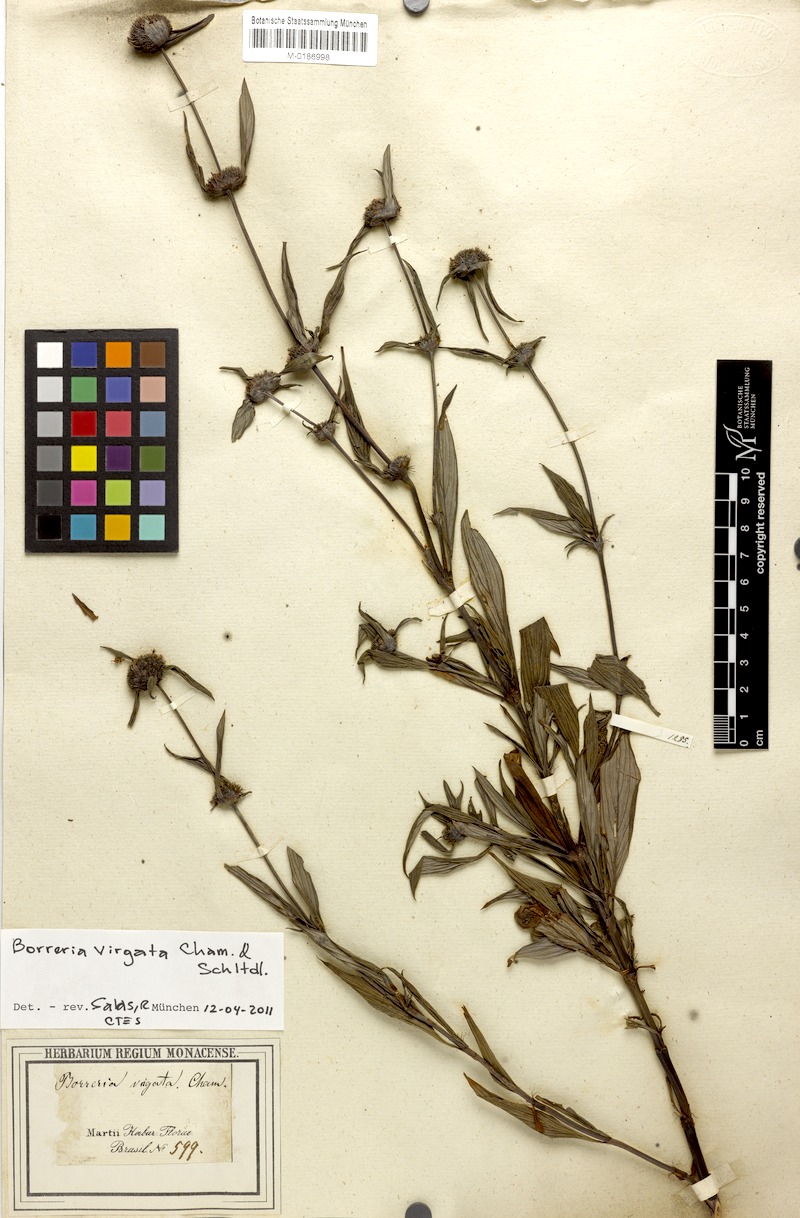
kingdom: Plantae
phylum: Tracheophyta
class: Magnoliopsida
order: Gentianales
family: Rubiaceae
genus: Spermacoce
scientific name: Spermacoce ocymifolia
